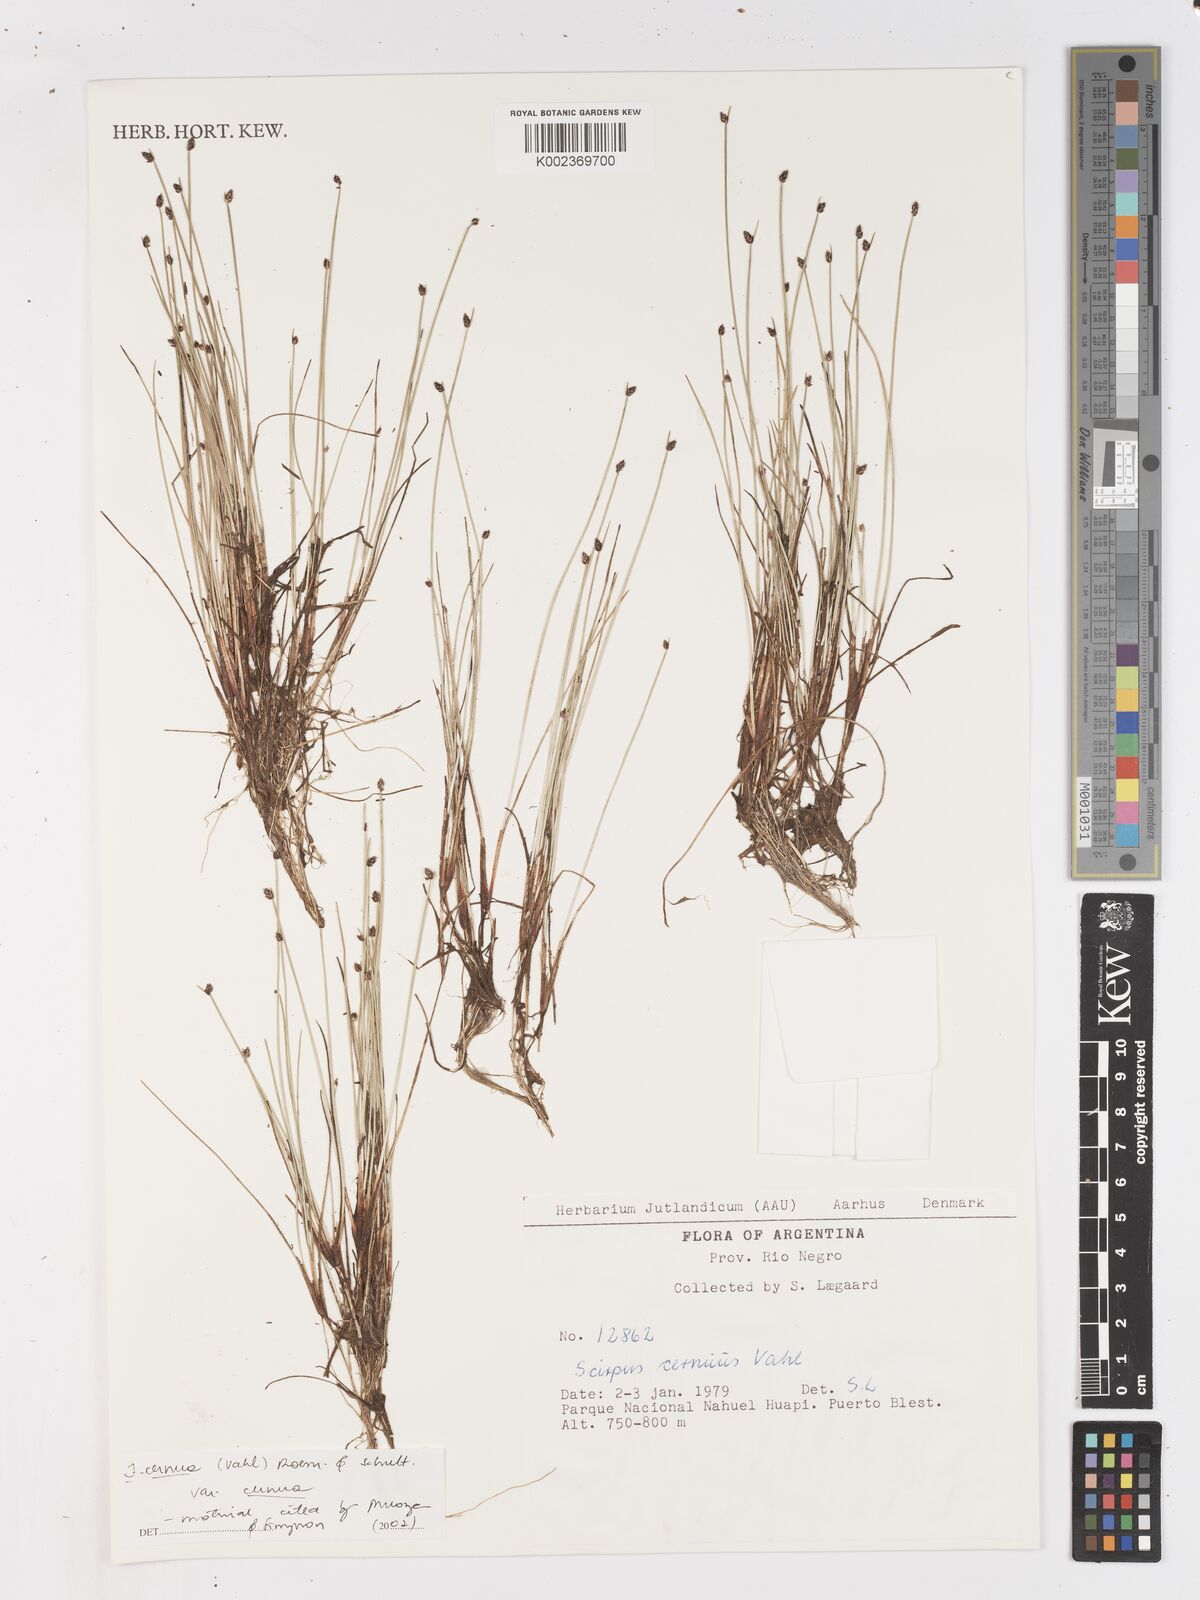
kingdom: Plantae
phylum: Tracheophyta
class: Liliopsida
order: Poales
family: Cyperaceae
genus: Isolepis
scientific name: Isolepis cernua
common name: Slender club-rush
